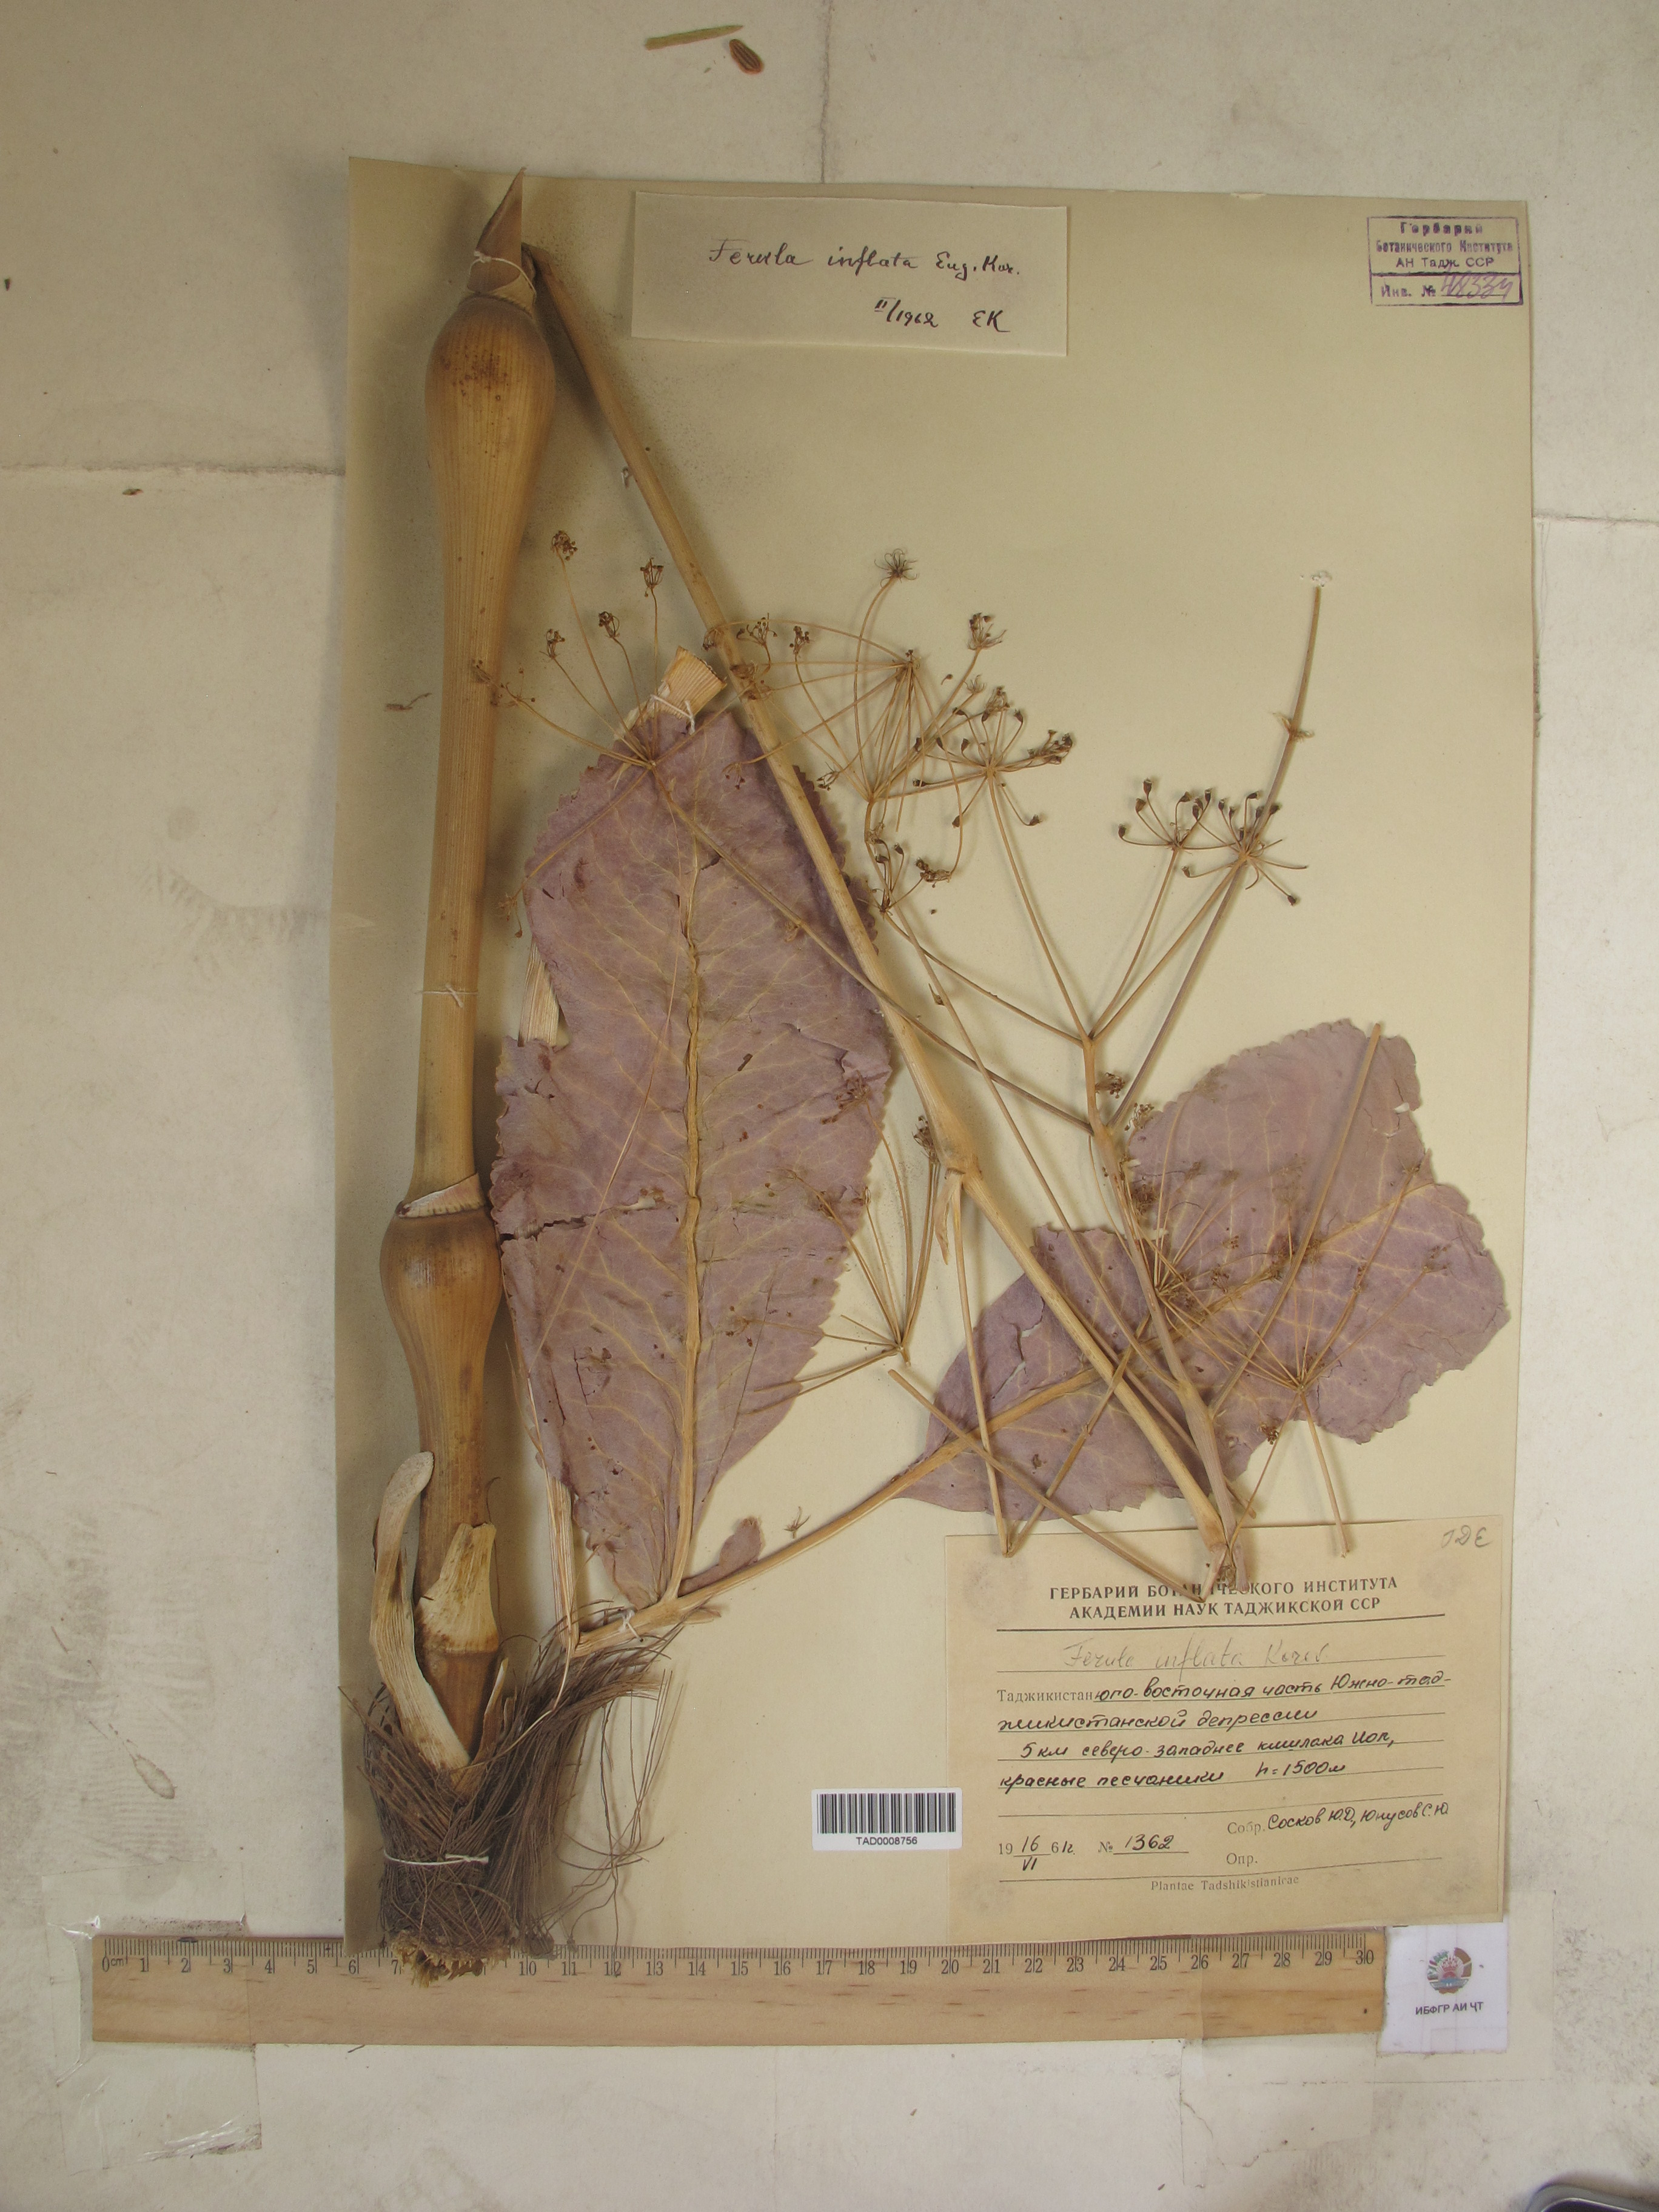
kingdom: Plantae
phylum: Tracheophyta
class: Magnoliopsida
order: Apiales
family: Apiaceae
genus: Ferula
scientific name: Ferula gigantea
